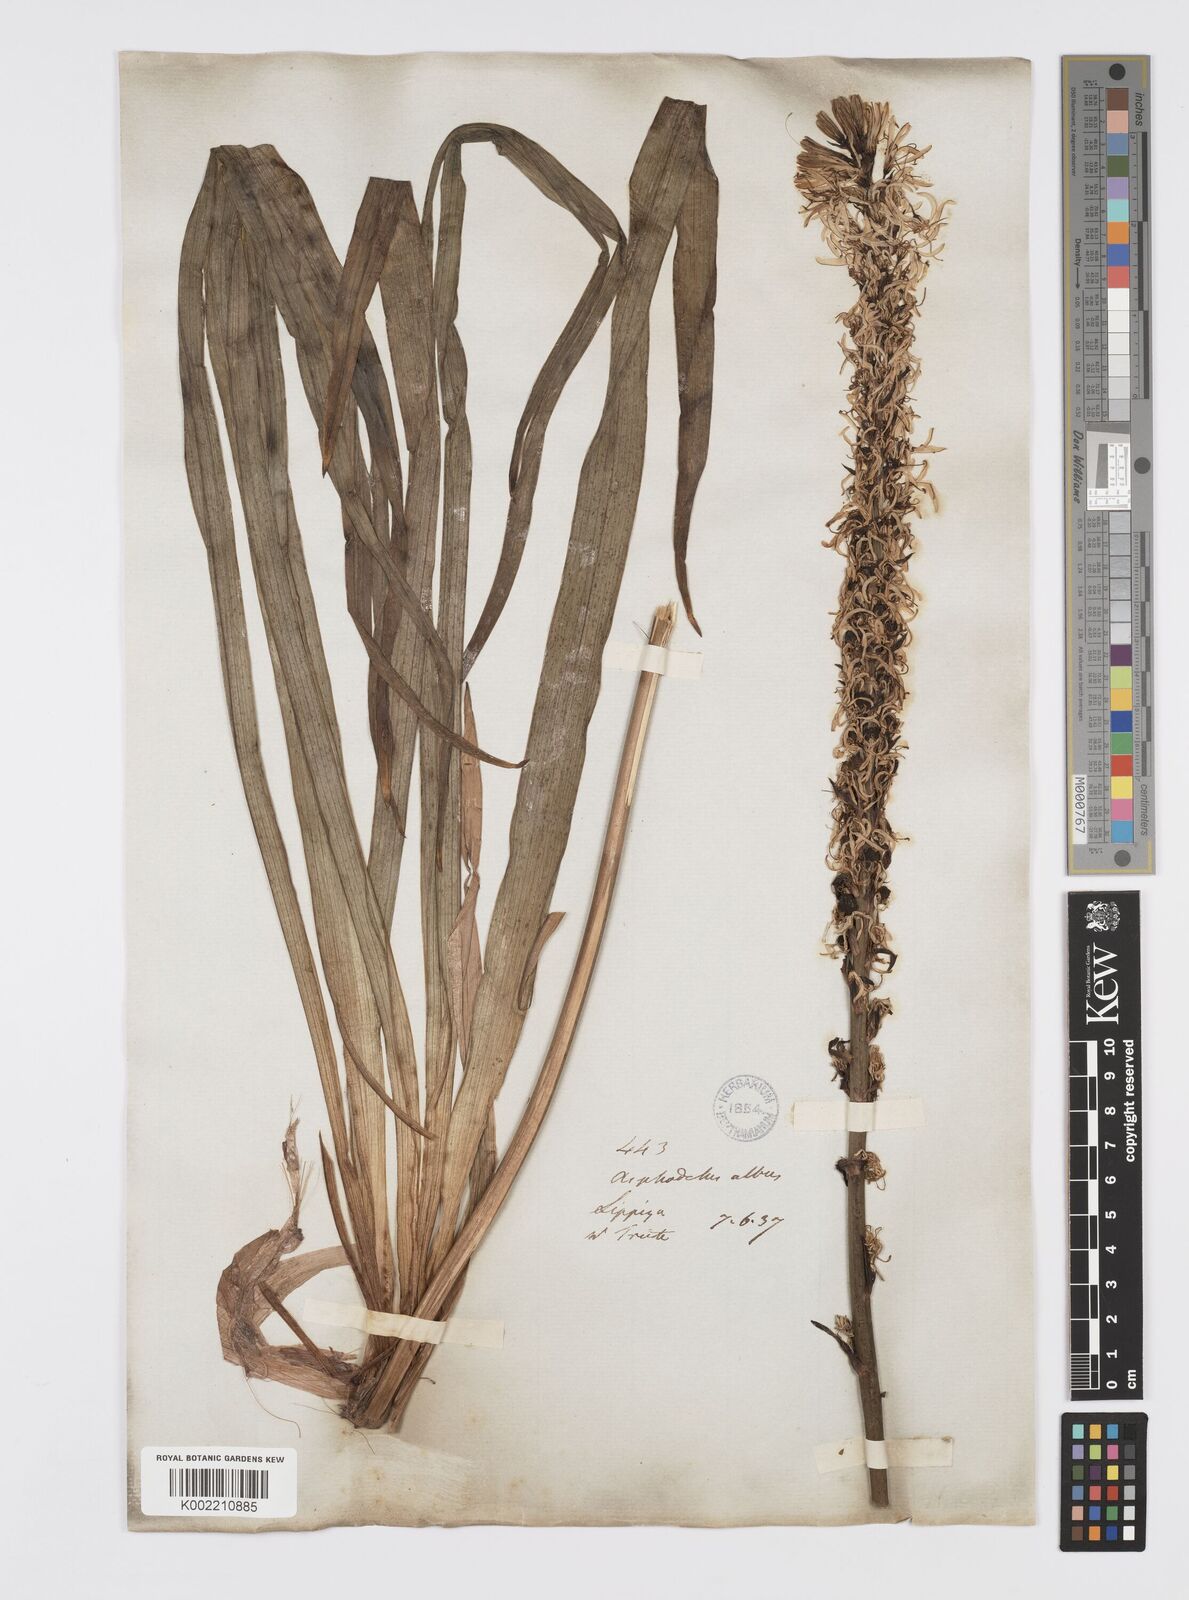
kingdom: Plantae
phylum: Tracheophyta
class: Liliopsida
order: Asparagales
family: Asphodelaceae
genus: Asphodelus
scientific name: Asphodelus albus
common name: White asphodel
